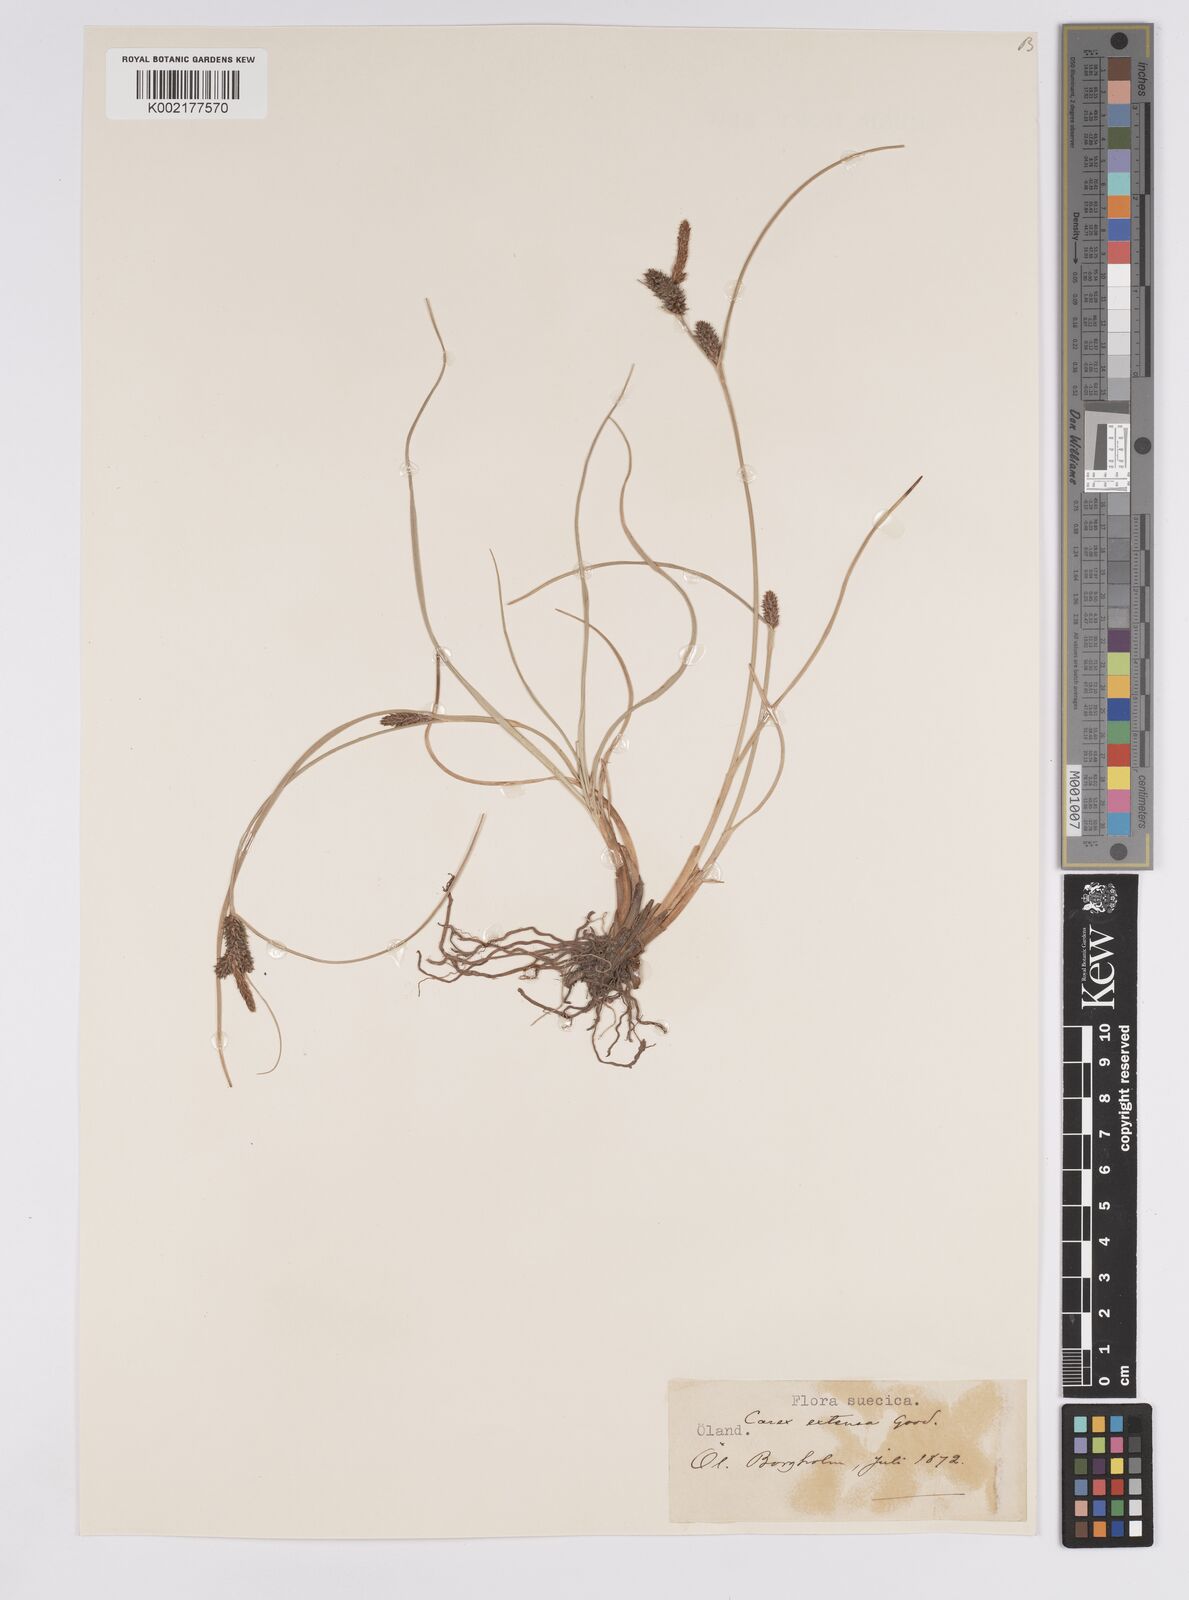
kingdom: Plantae
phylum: Tracheophyta
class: Liliopsida
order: Poales
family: Cyperaceae
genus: Carex
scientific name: Carex extensa
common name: Long-bracted sedge
